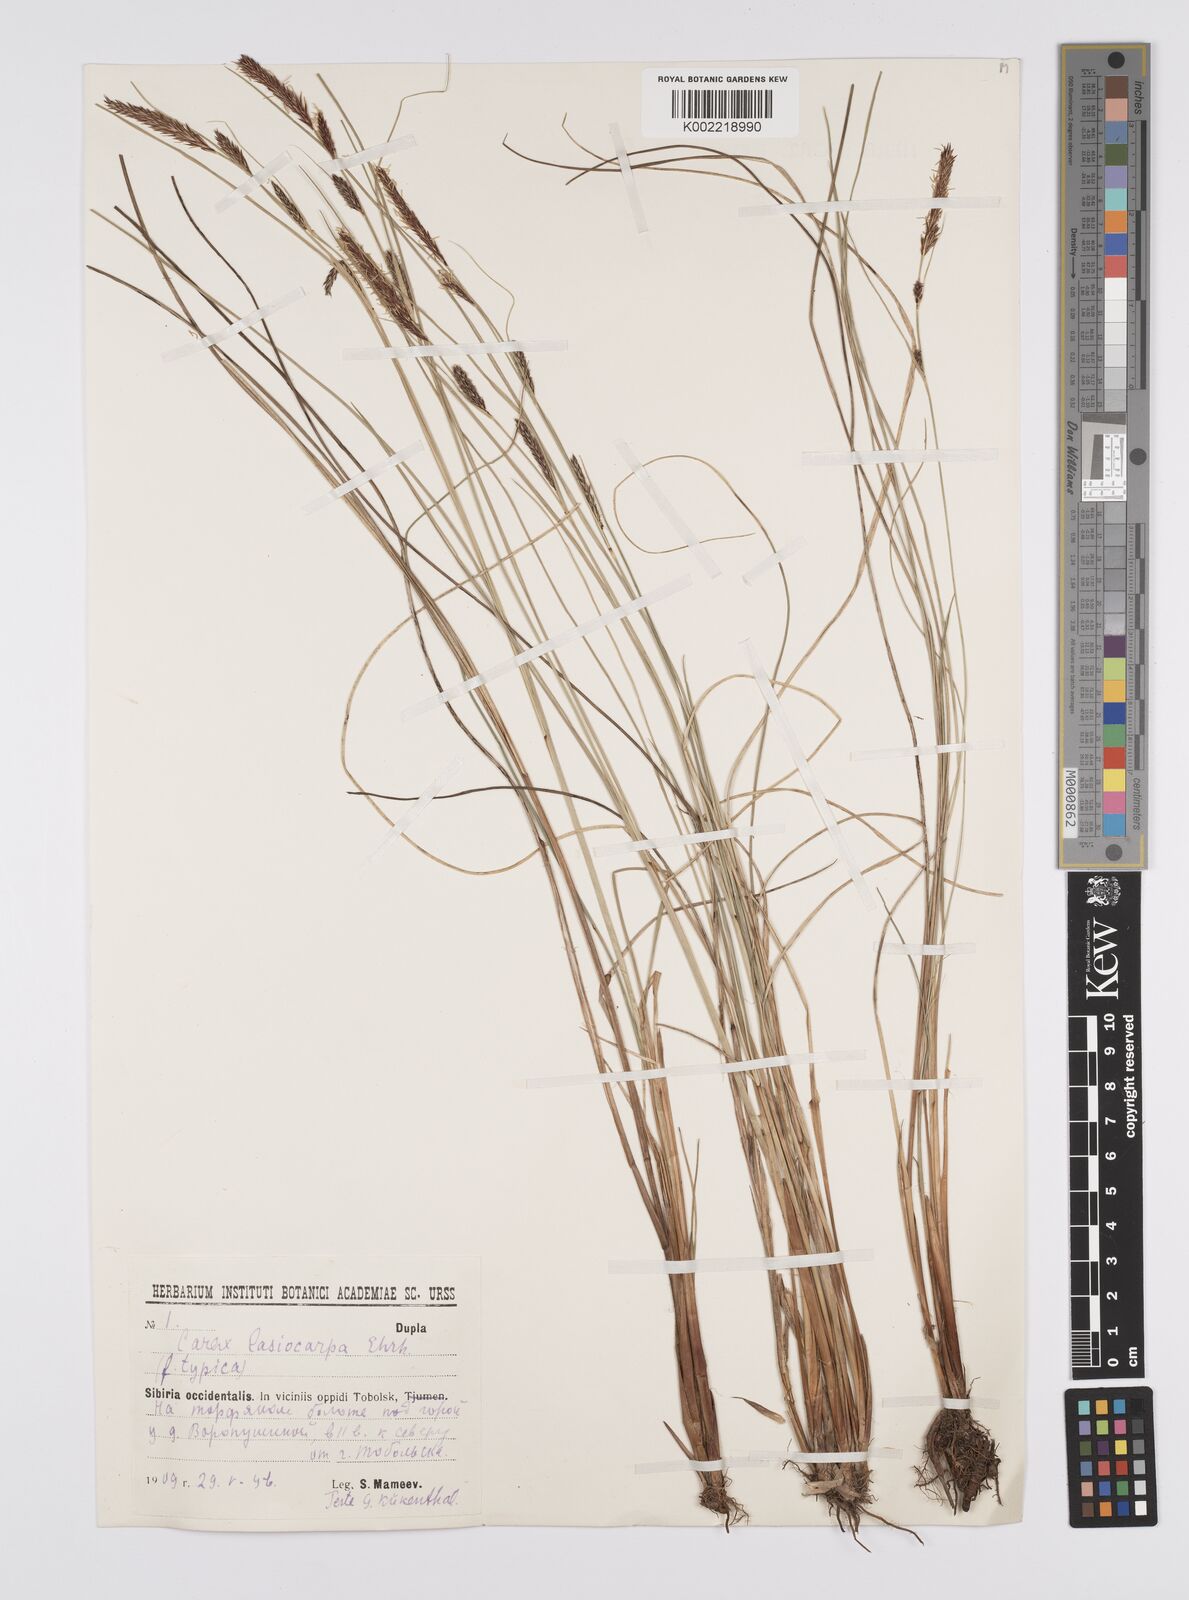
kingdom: Plantae
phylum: Tracheophyta
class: Liliopsida
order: Poales
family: Cyperaceae
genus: Carex
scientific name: Carex lasiocarpa
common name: Slender sedge
